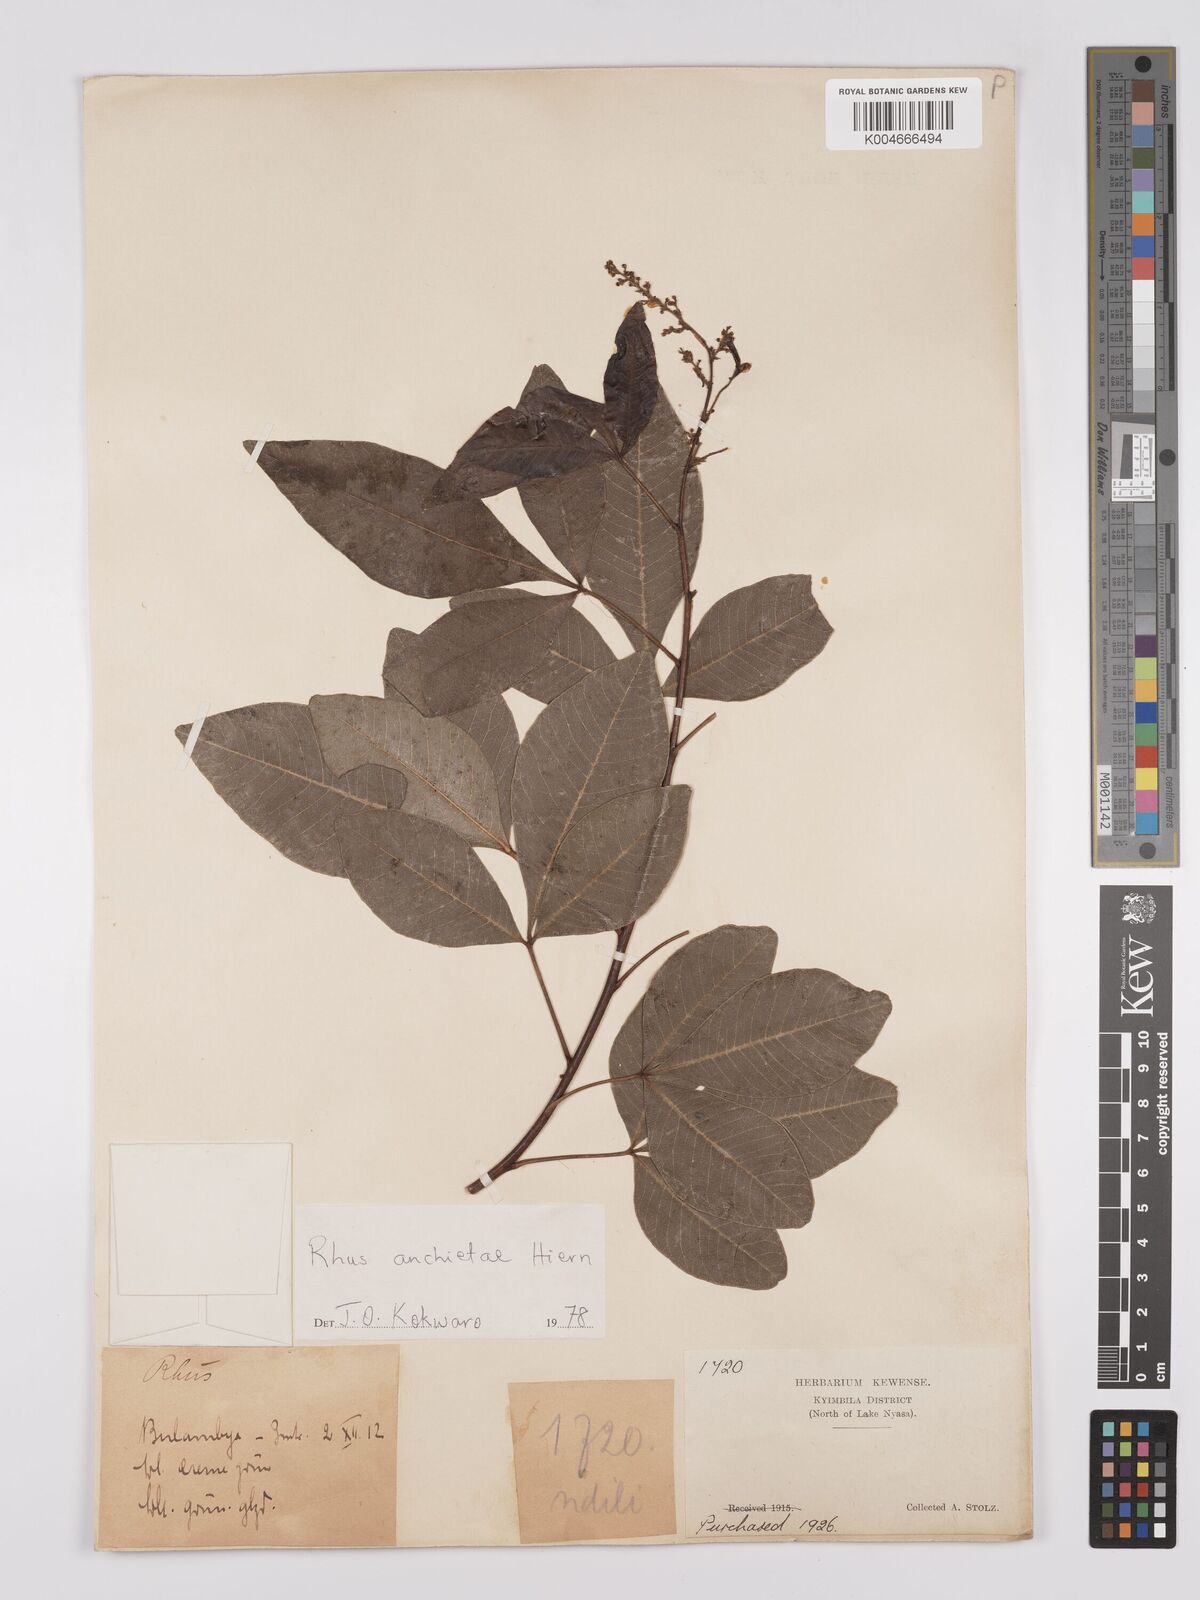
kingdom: Plantae
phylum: Tracheophyta
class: Magnoliopsida
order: Sapindales
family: Anacardiaceae
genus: Searsia
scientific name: Searsia anchietae
